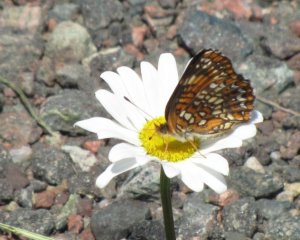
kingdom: Animalia
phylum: Arthropoda
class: Insecta
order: Lepidoptera
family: Nymphalidae
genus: Chlosyne
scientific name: Chlosyne harrisii
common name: Harris's Checkerspot
